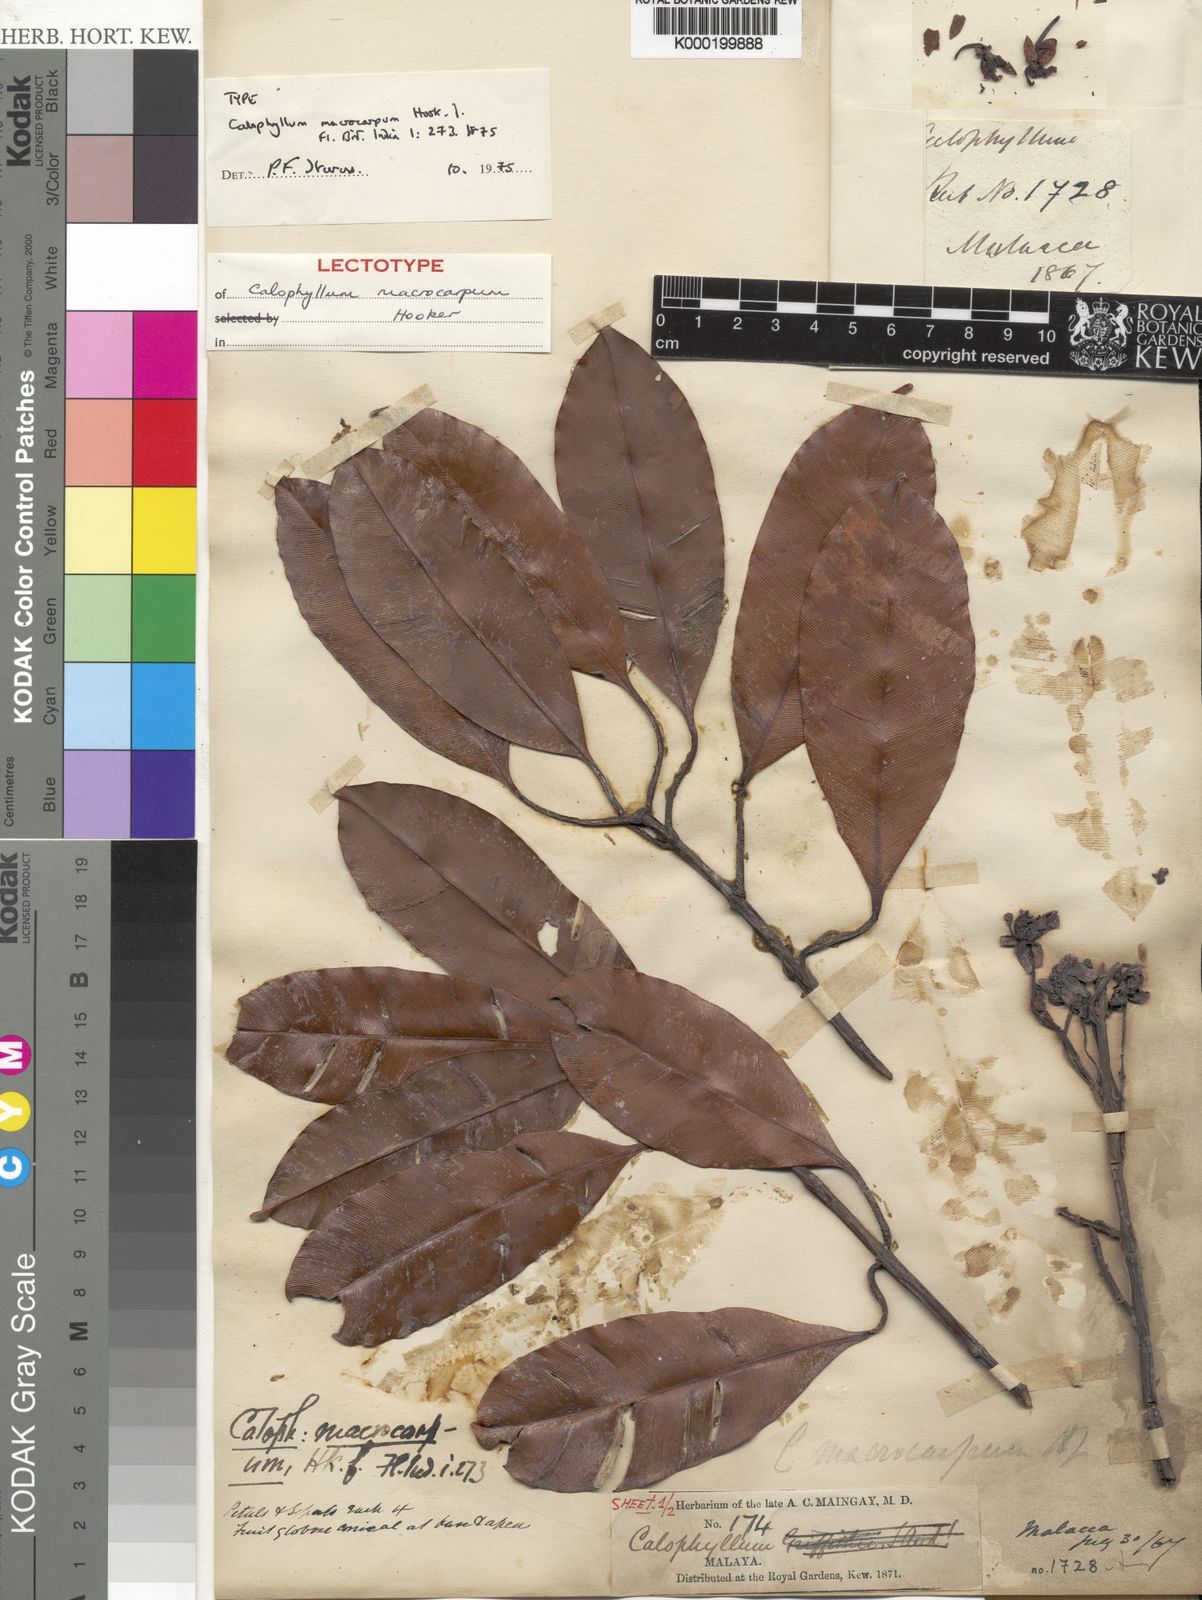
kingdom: Plantae
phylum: Tracheophyta
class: Magnoliopsida
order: Malpighiales
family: Calophyllaceae
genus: Calophyllum
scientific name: Calophyllum macrocarpum
